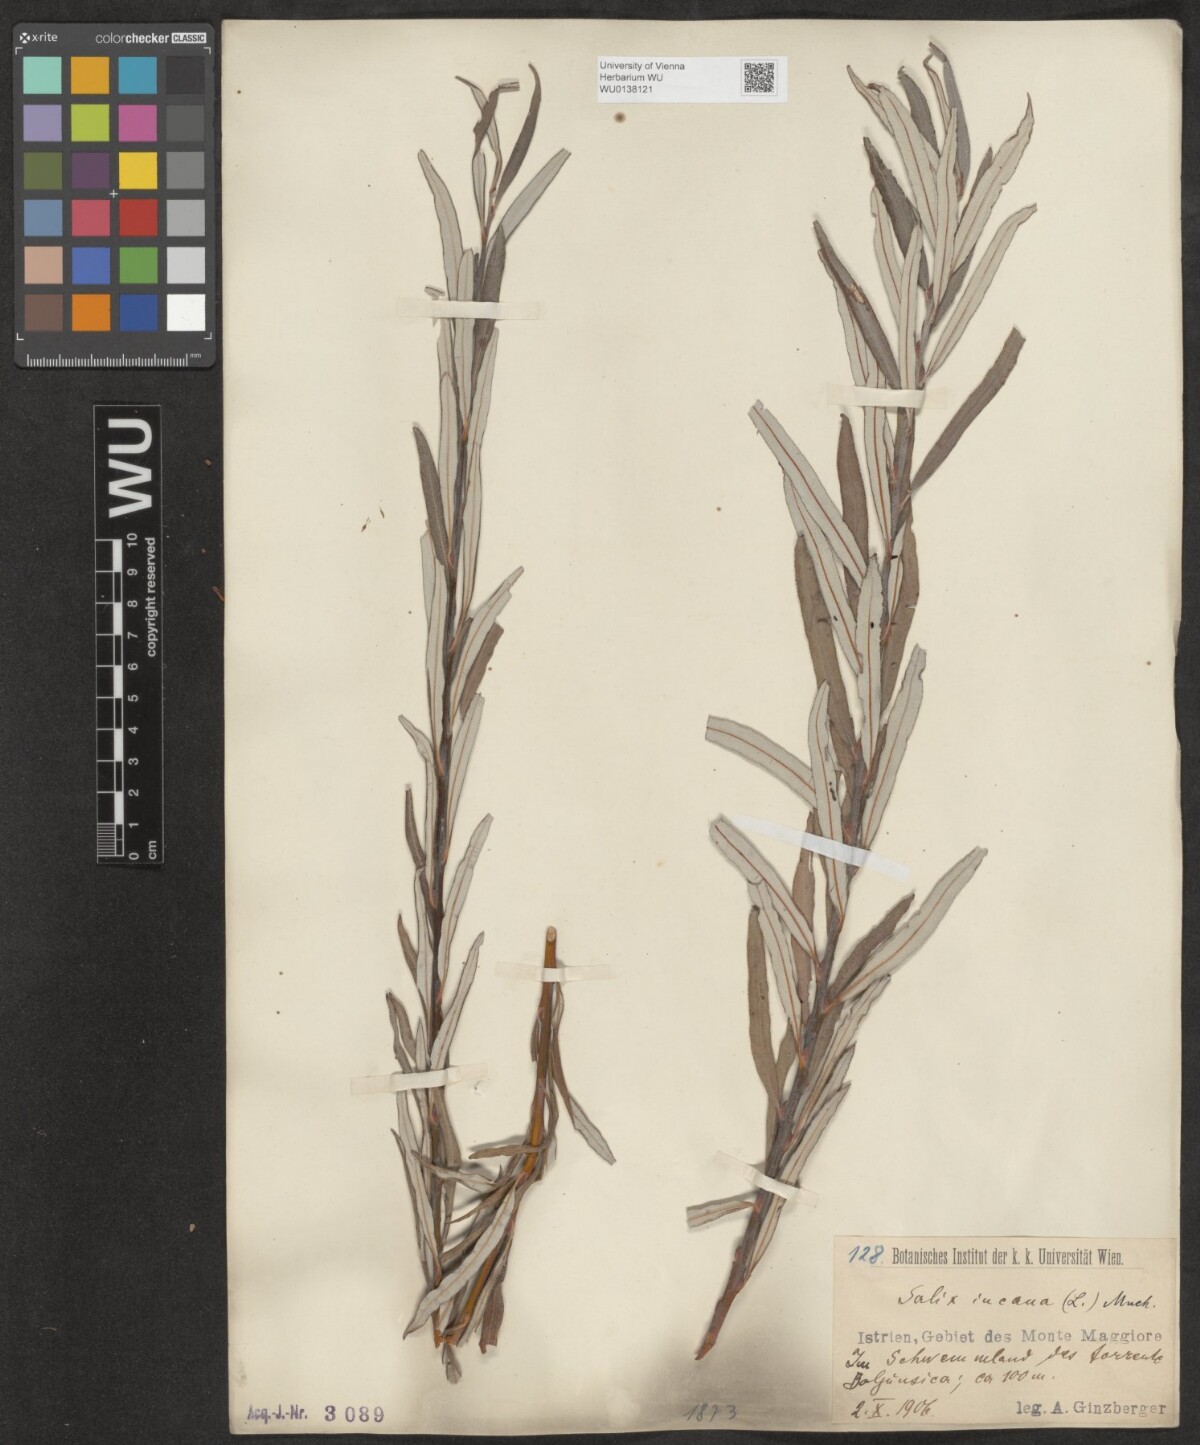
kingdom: Plantae
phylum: Tracheophyta
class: Magnoliopsida
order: Malpighiales
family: Salicaceae
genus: Salix
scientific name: Salix eleagnos
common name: Elaeagnus willow
